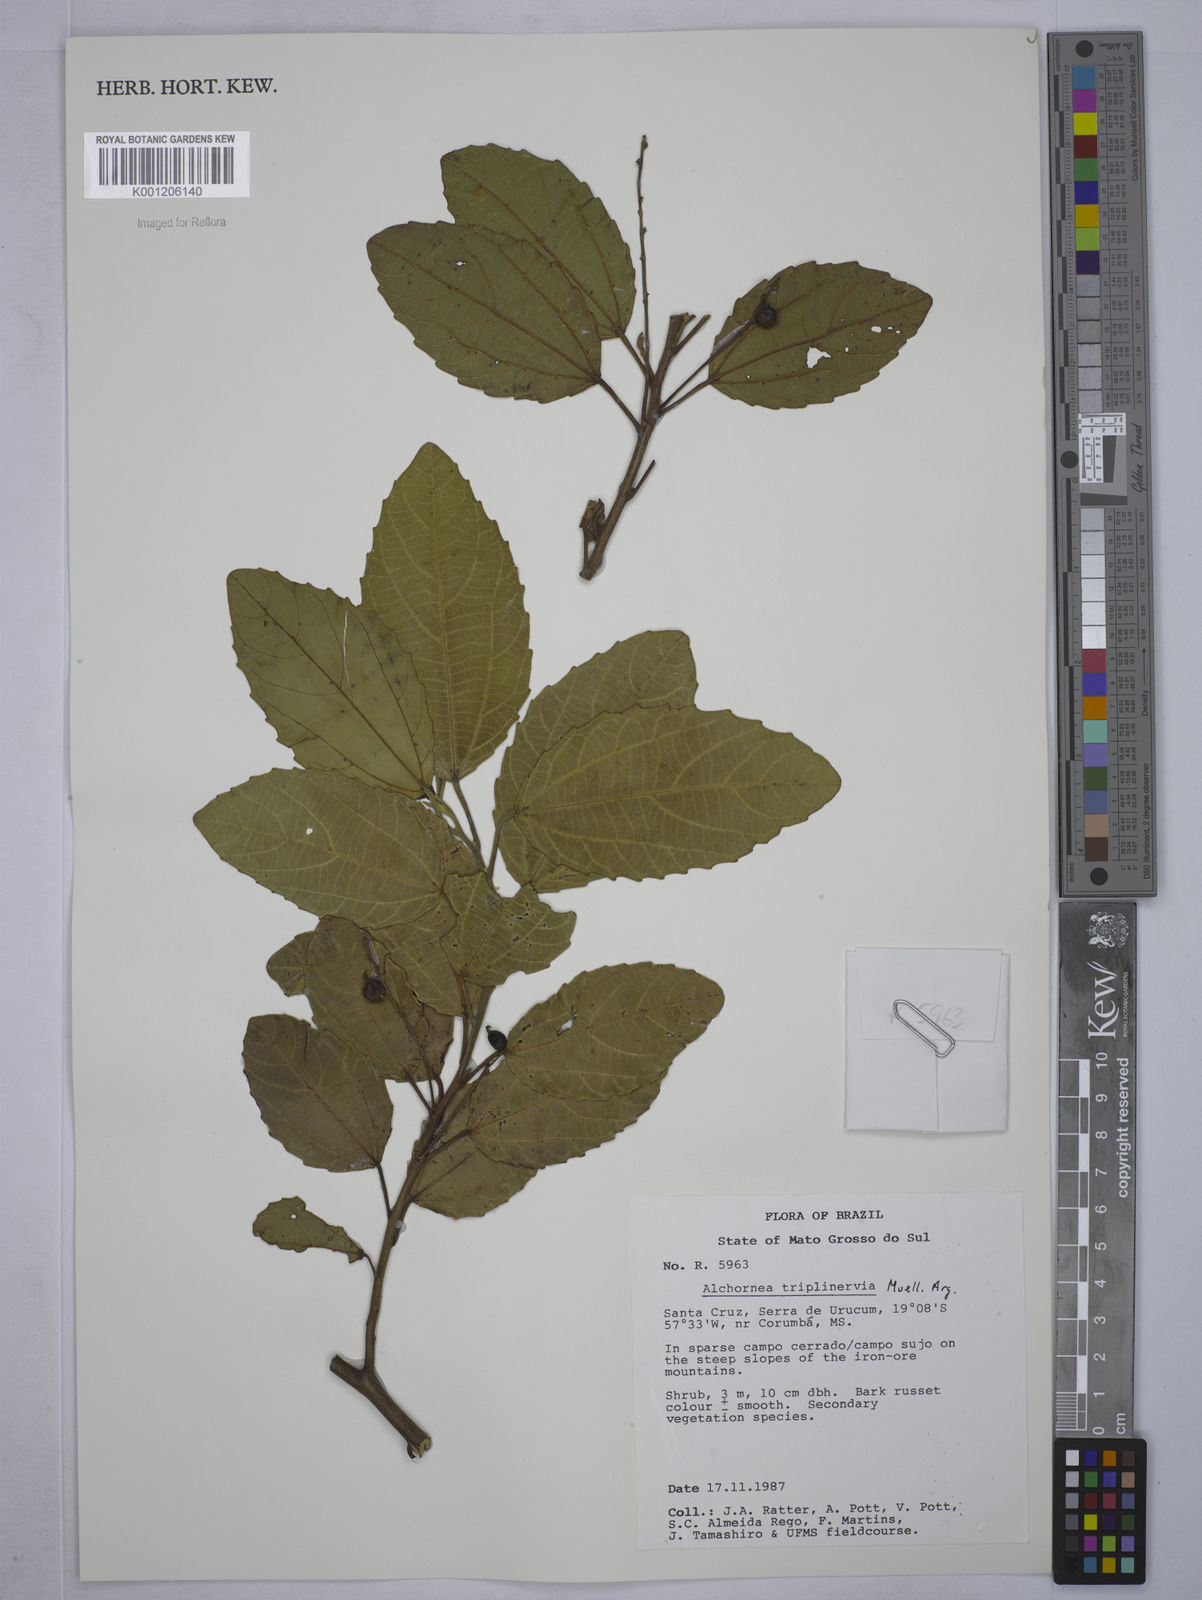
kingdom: Plantae
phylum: Tracheophyta
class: Magnoliopsida
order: Malpighiales
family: Euphorbiaceae
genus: Alchornea
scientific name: Alchornea
